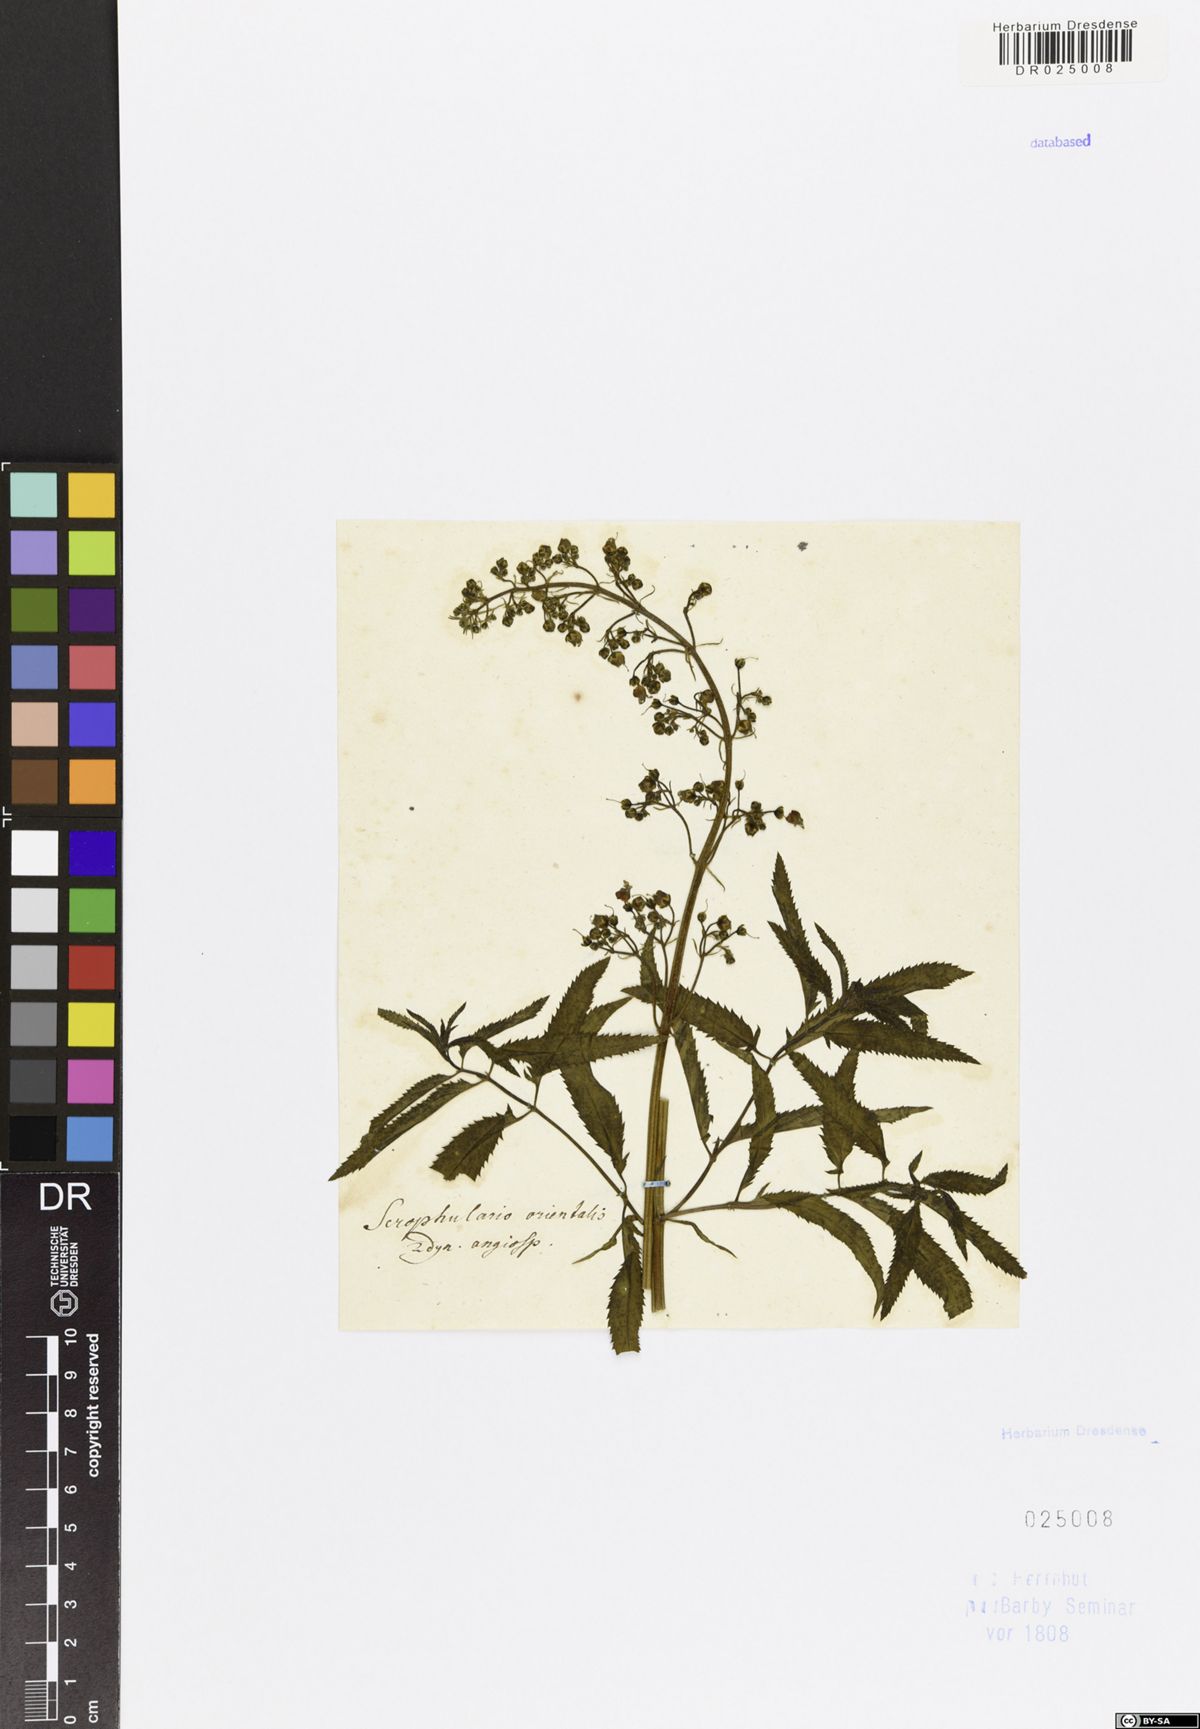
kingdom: Plantae
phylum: Tracheophyta
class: Magnoliopsida
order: Lamiales
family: Scrophulariaceae
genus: Scrophularia
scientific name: Scrophularia orientalis
